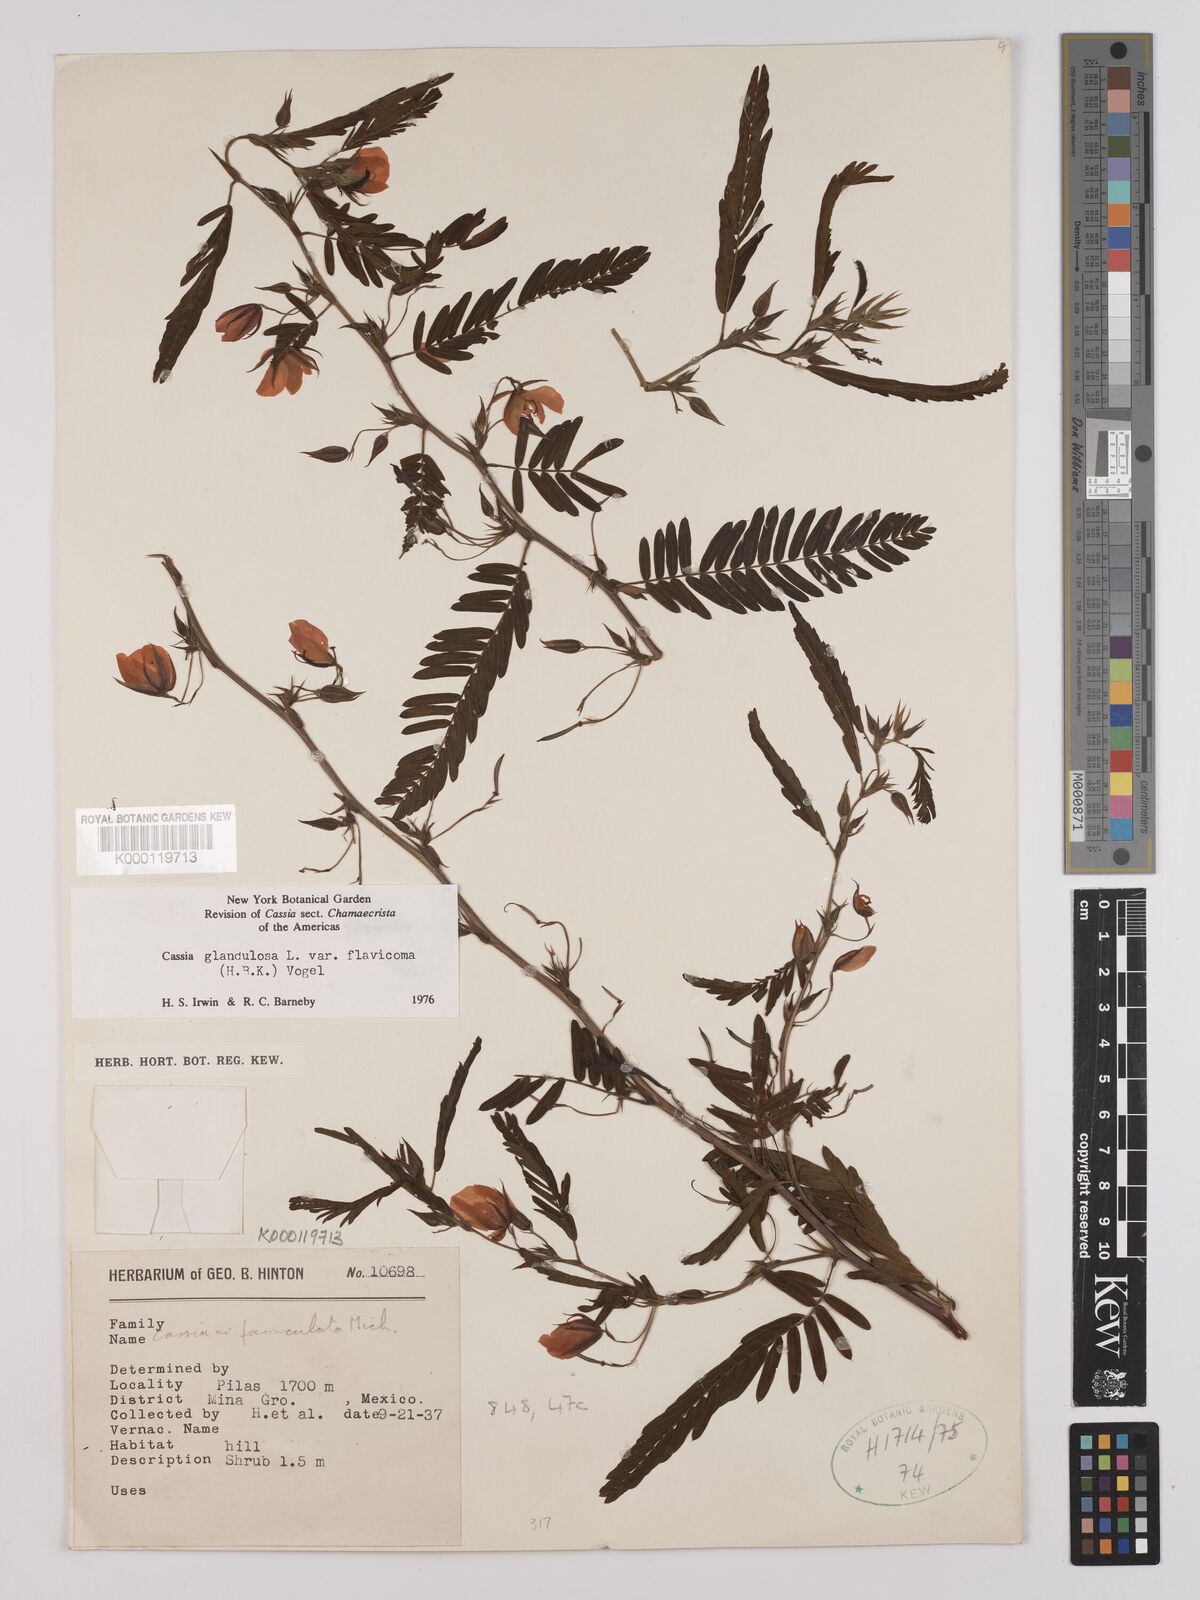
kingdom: Plantae
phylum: Tracheophyta
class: Magnoliopsida
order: Fabales
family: Fabaceae
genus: Chamaecrista
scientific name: Chamaecrista glandulosa
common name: Wild peas
